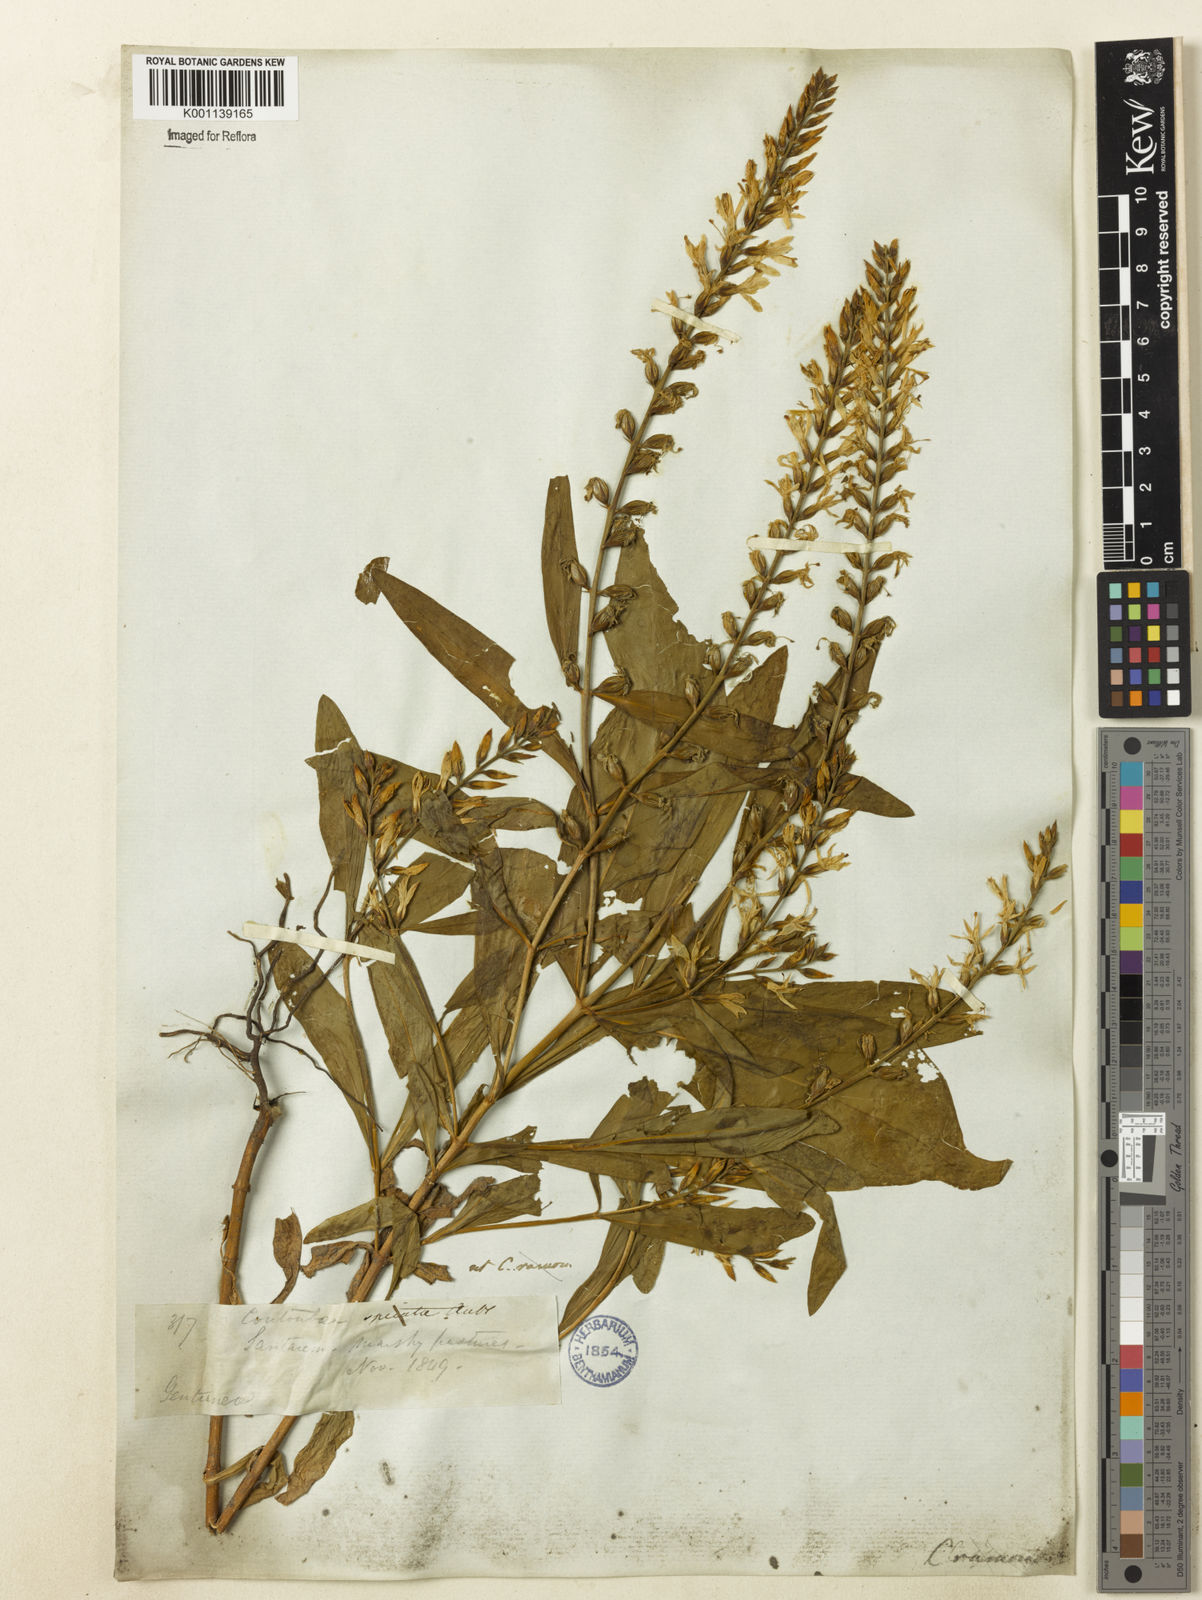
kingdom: Plantae
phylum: Tracheophyta
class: Magnoliopsida
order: Gentianales
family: Gentianaceae
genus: Coutoubea
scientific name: Coutoubea ramosa
